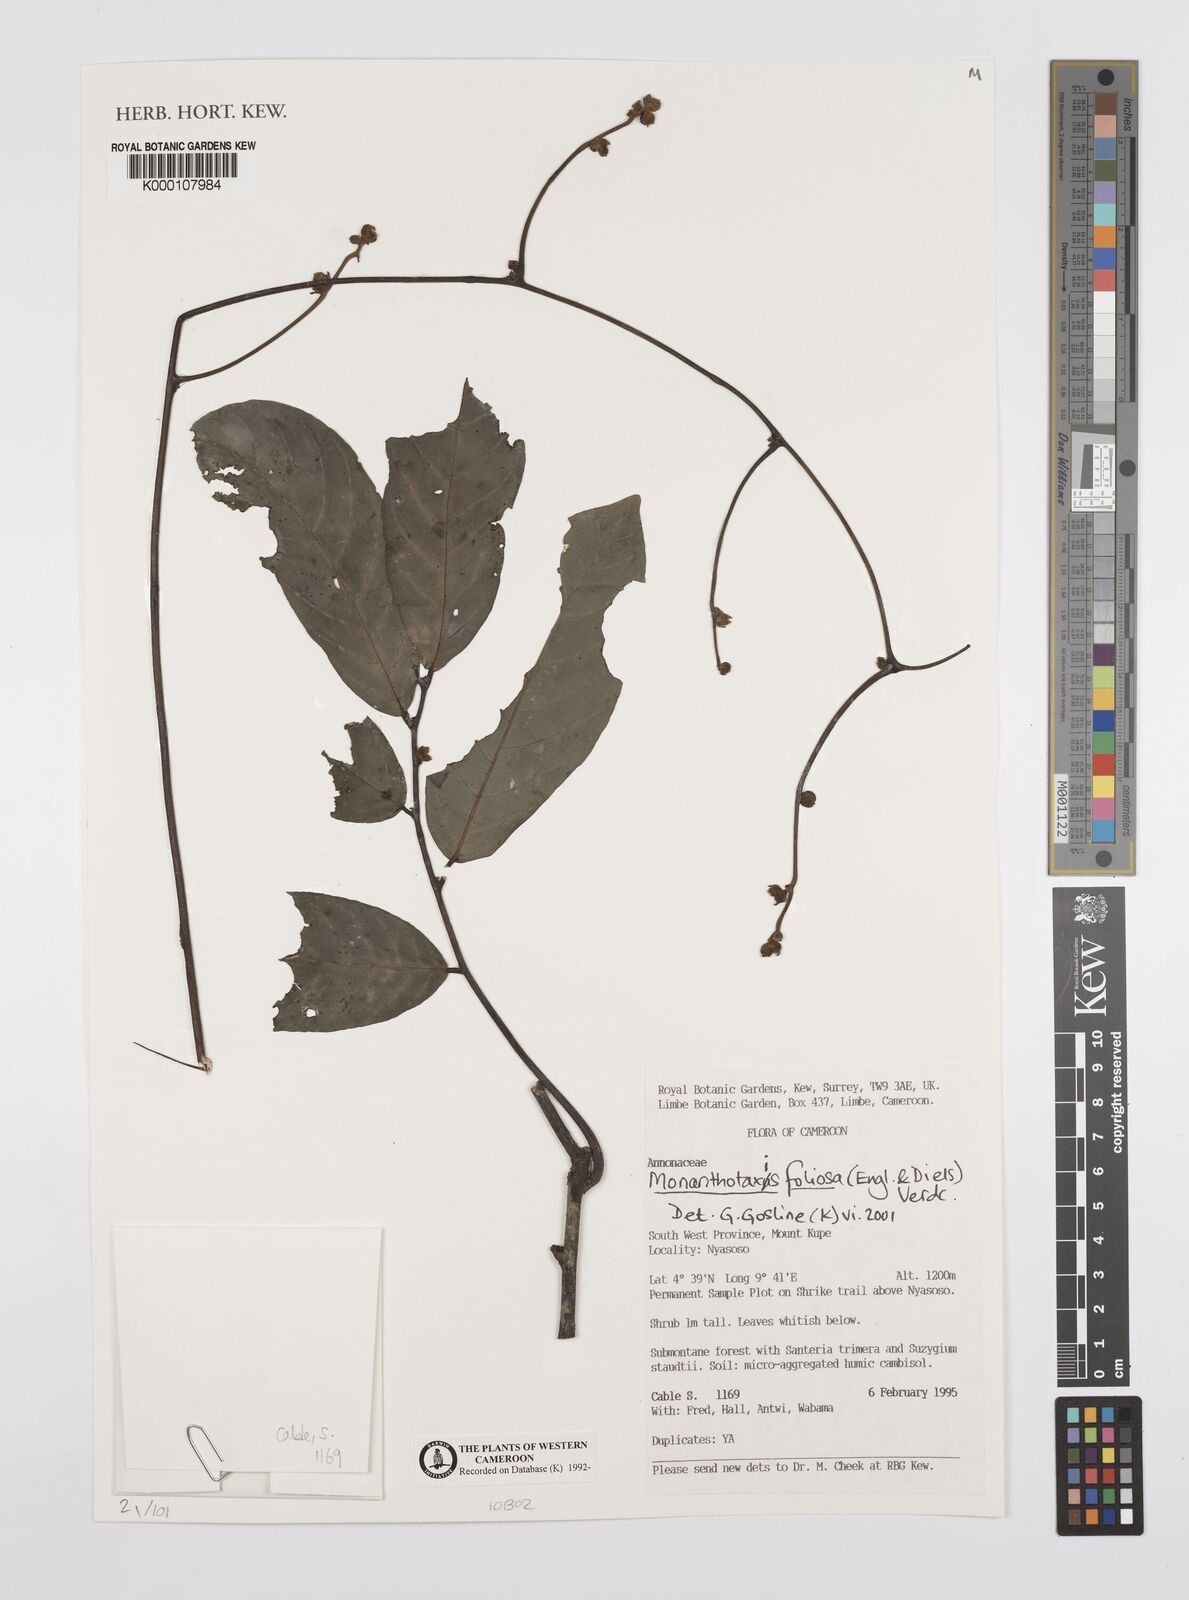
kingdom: Plantae
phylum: Tracheophyta
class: Magnoliopsida
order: Magnoliales
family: Annonaceae
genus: Monanthotaxis
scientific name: Monanthotaxis foliosa
